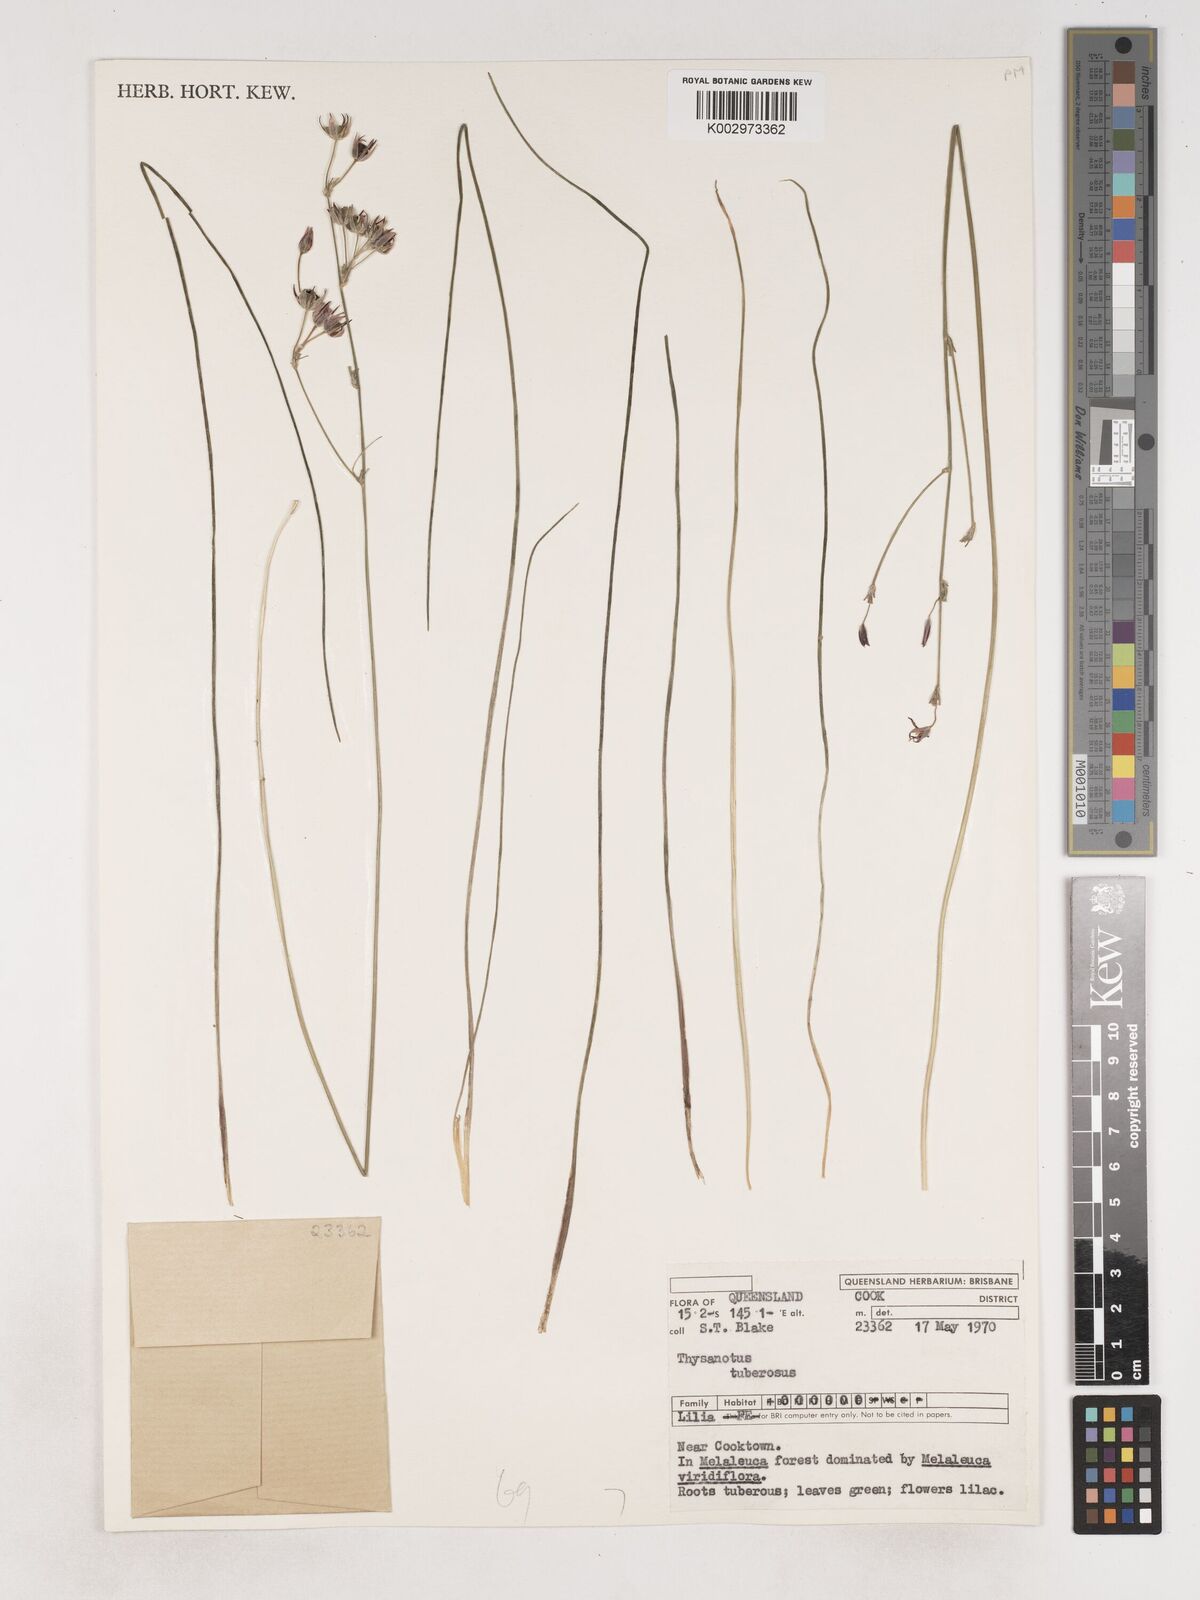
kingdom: Plantae
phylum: Tracheophyta
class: Liliopsida
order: Asparagales
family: Asparagaceae
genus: Thysanotus
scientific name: Thysanotus tuberosus
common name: Common fringed-lily
